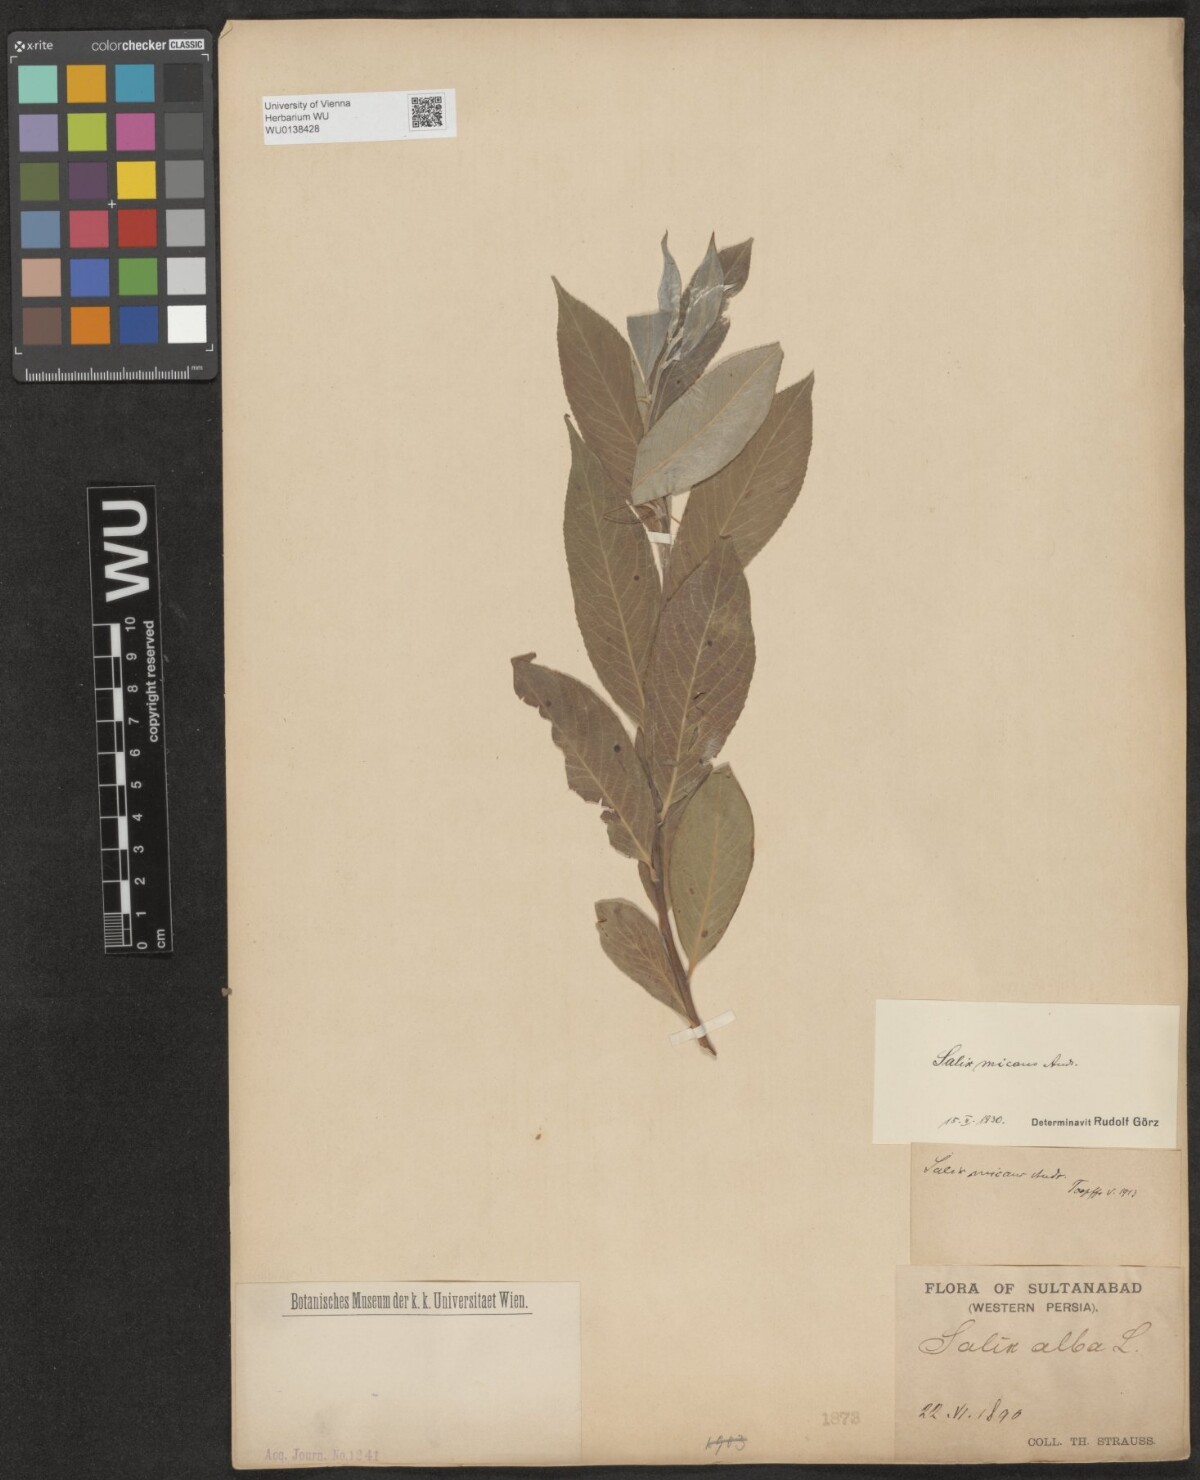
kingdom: Plantae
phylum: Tracheophyta
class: Magnoliopsida
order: Malpighiales
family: Salicaceae
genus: Salix
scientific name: Salix alba
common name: White willow
